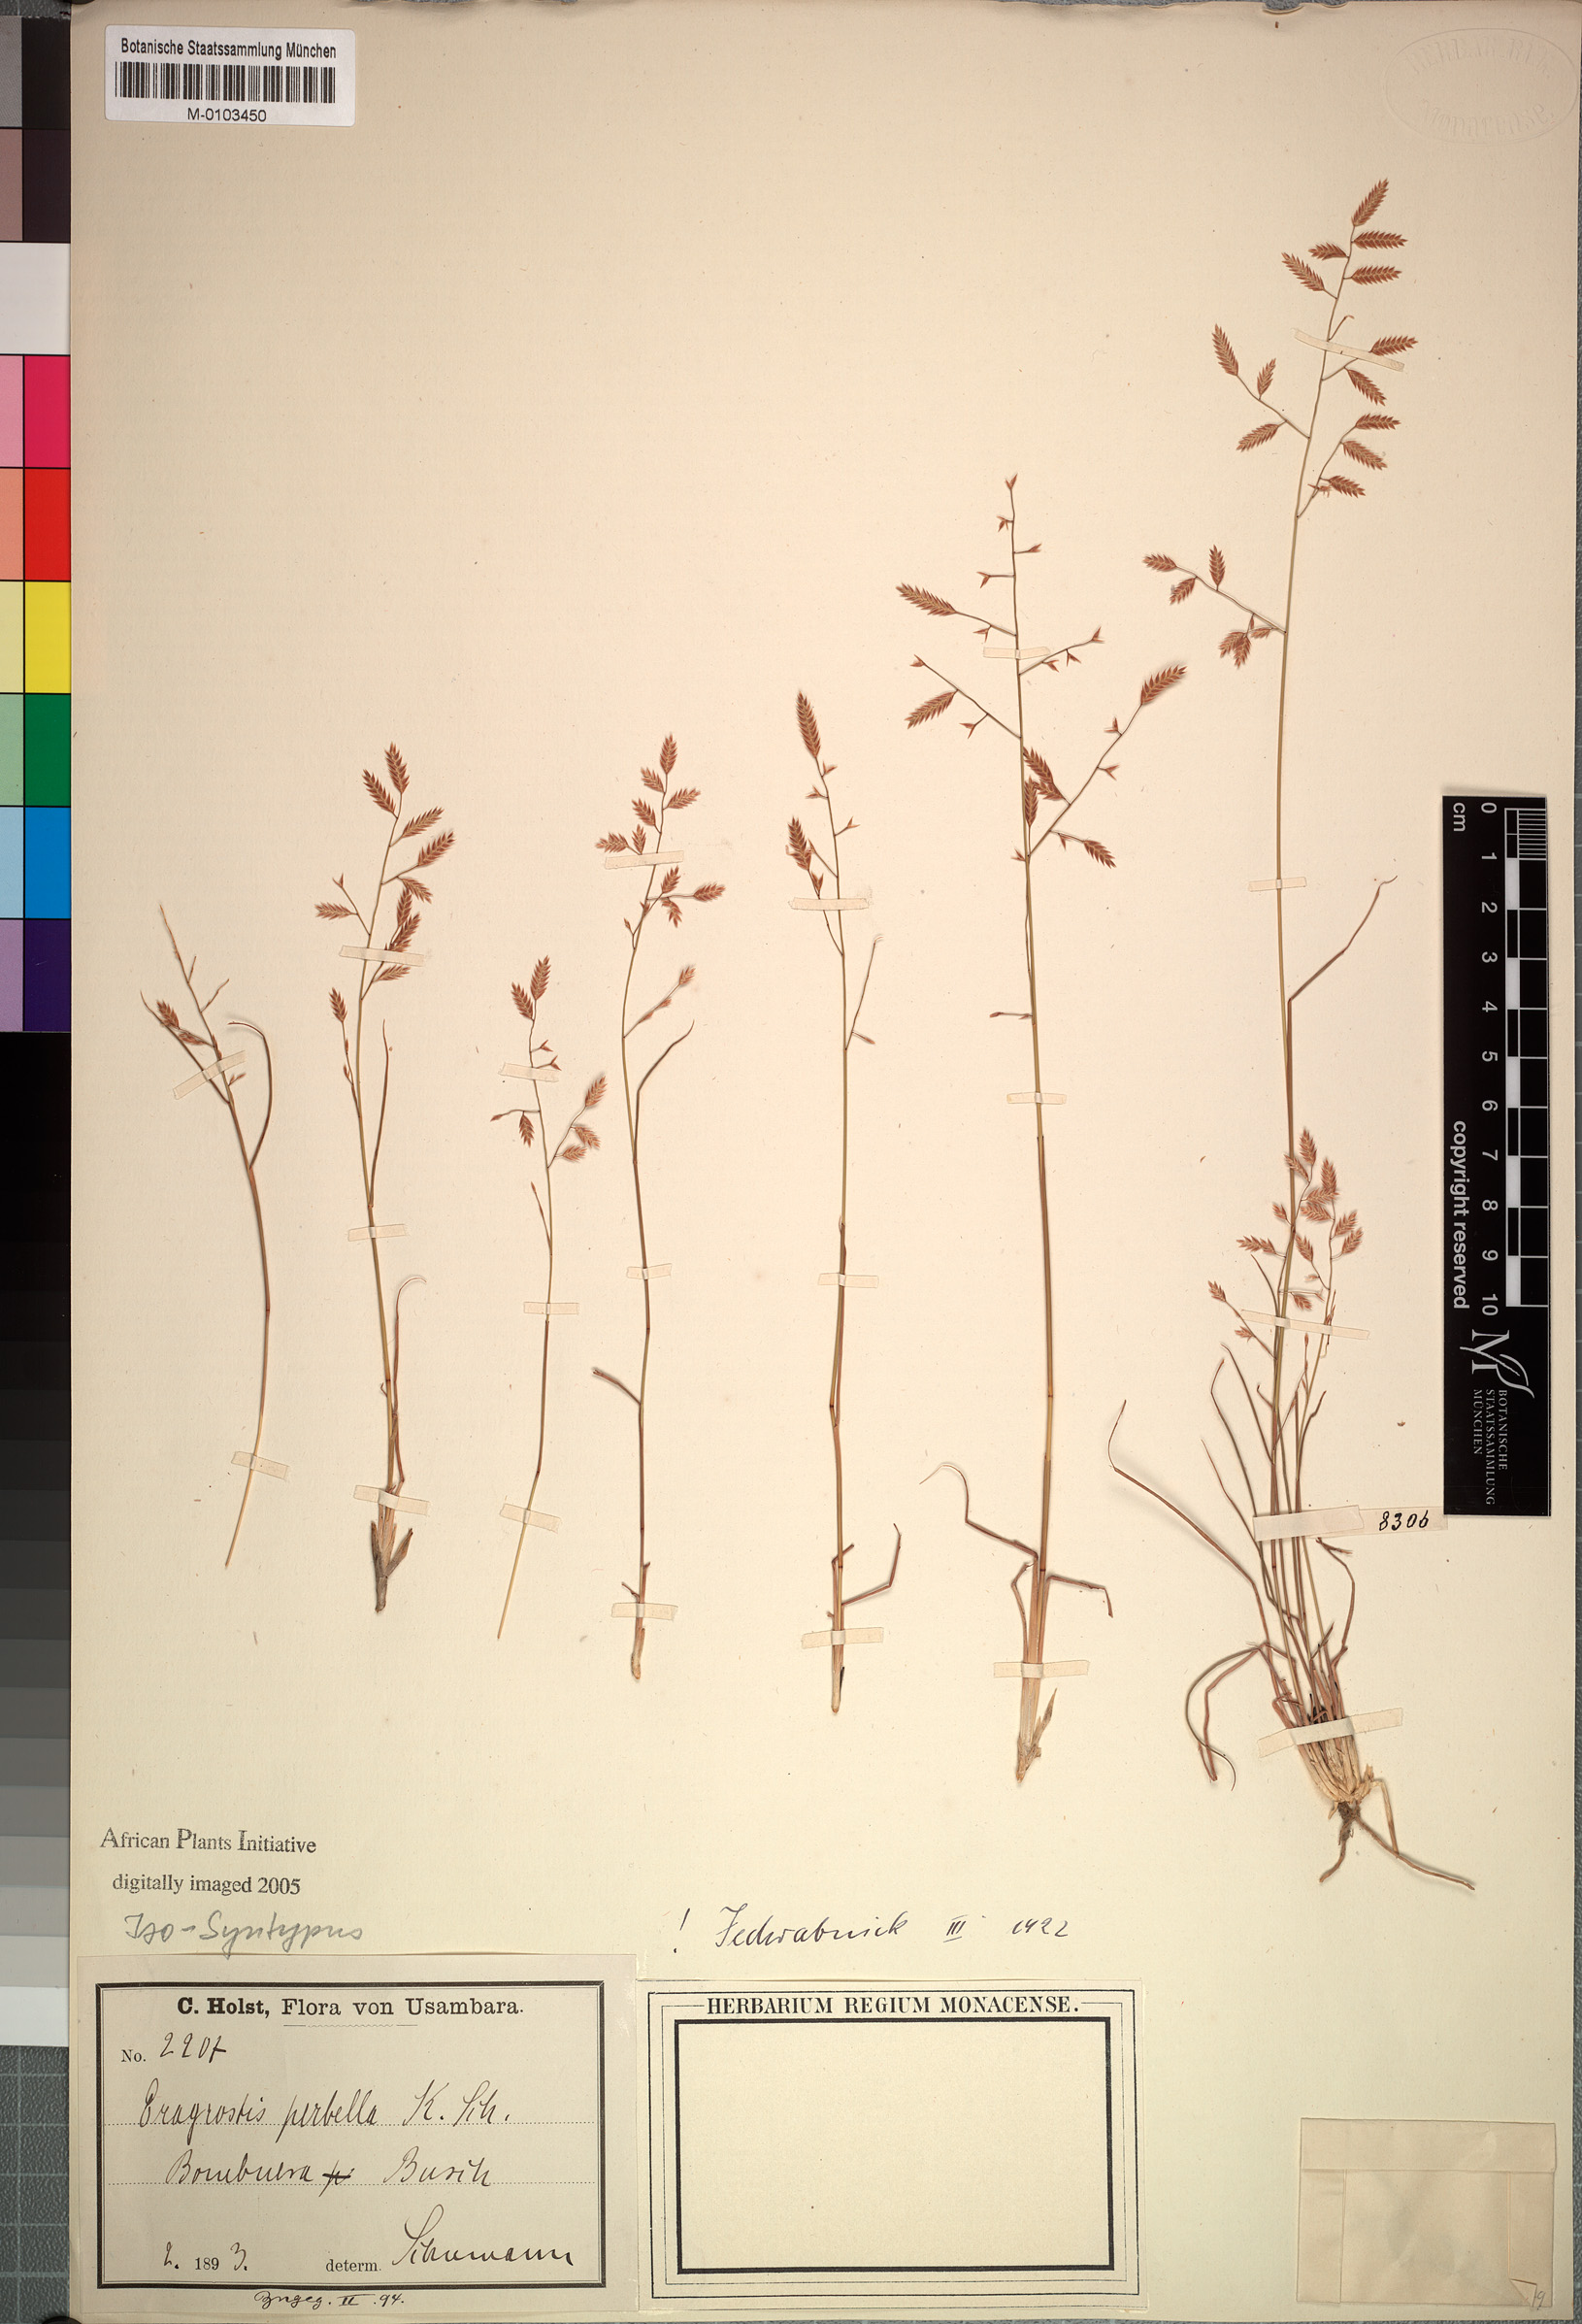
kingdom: Plantae
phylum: Tracheophyta
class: Liliopsida
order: Poales
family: Poaceae
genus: Eragrostis
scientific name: Eragrostis perbella
